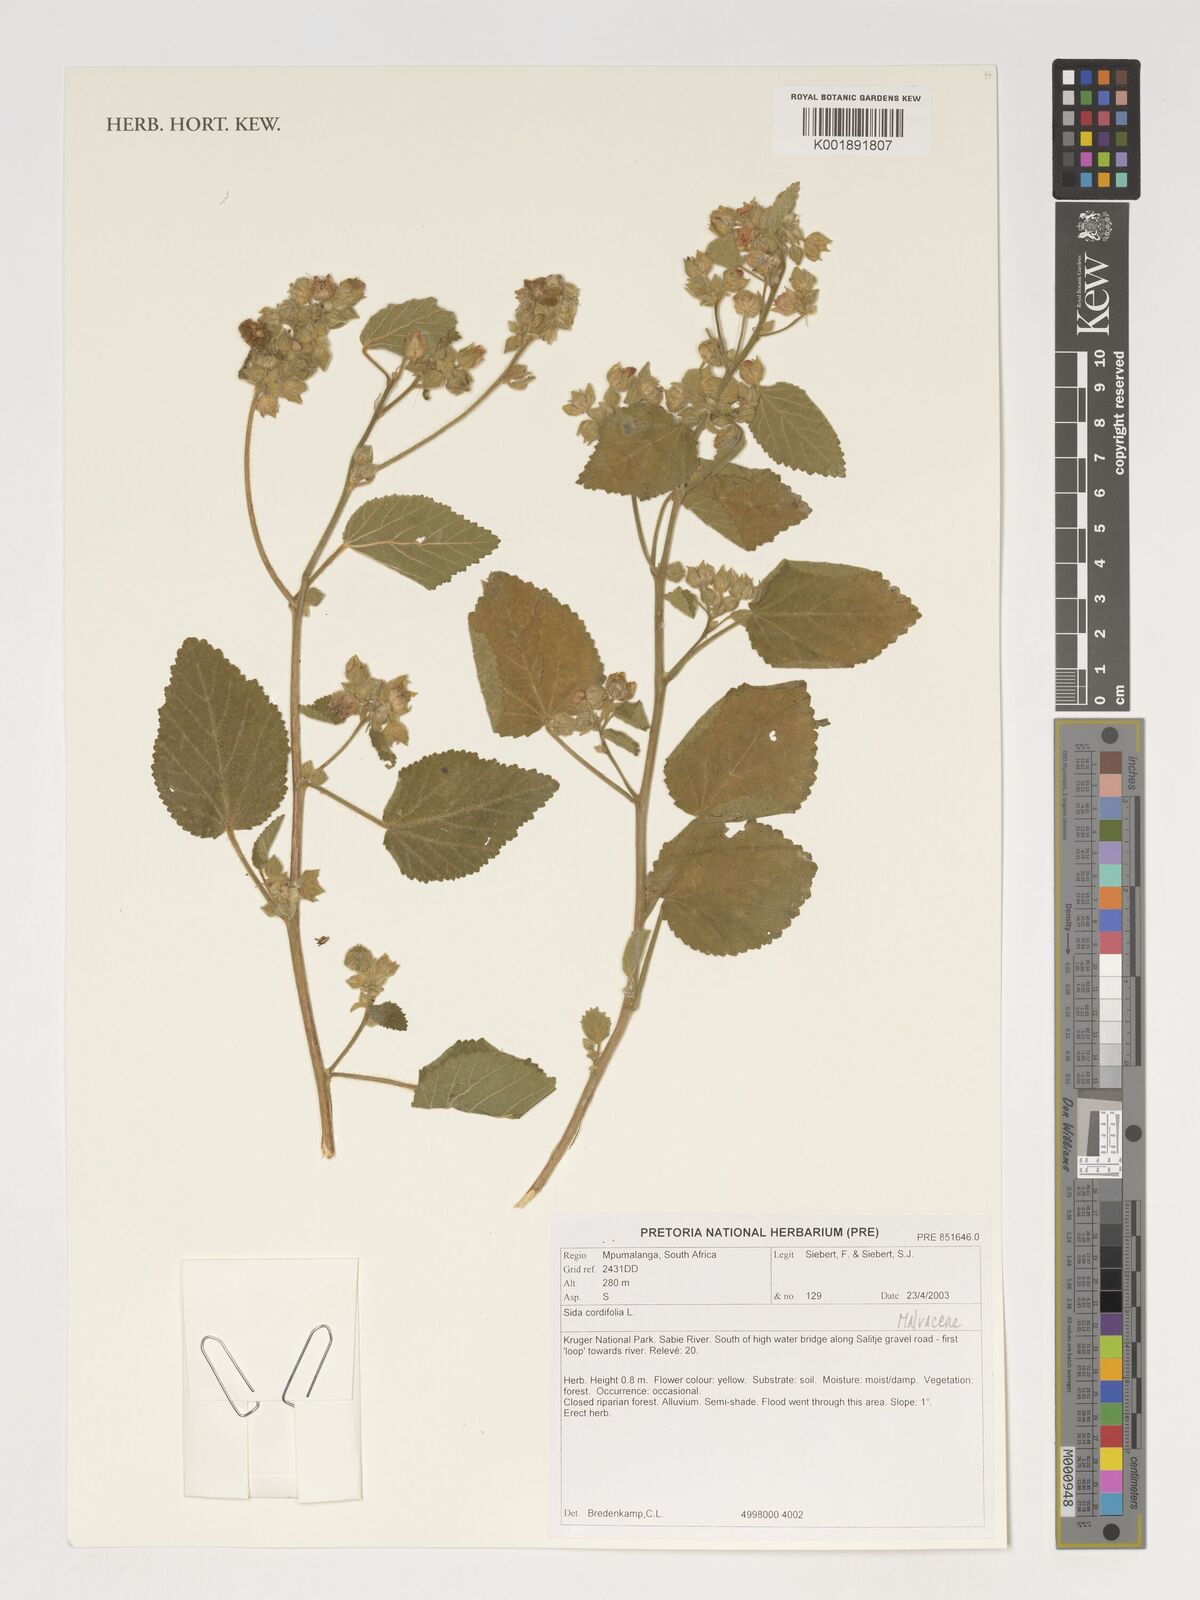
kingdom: Plantae
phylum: Tracheophyta
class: Magnoliopsida
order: Malvales
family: Malvaceae
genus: Sida
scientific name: Sida cordifolia
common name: Ilima
